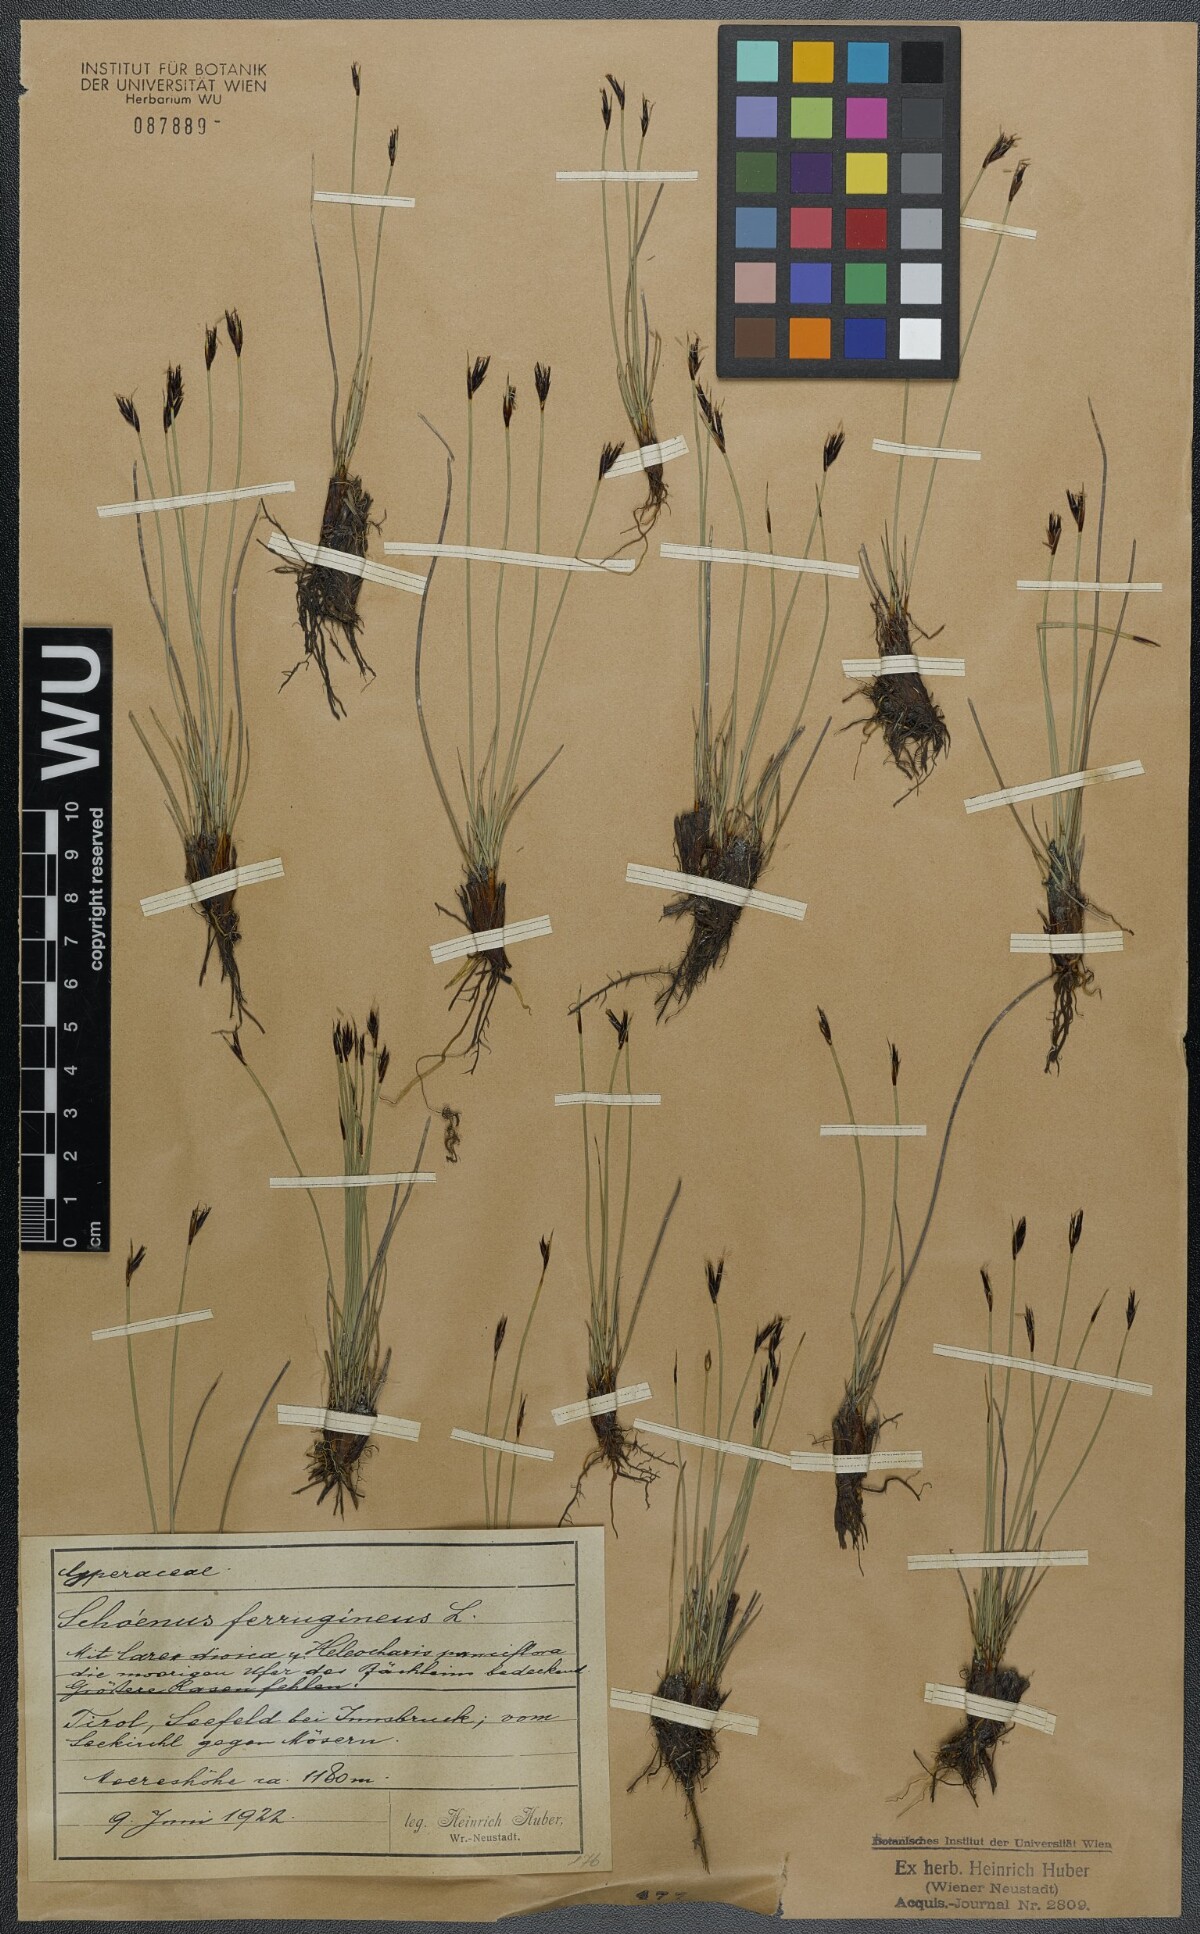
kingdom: Plantae
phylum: Tracheophyta
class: Liliopsida
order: Poales
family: Cyperaceae
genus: Schoenus
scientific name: Schoenus ferrugineus
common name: Brown bog-rush
